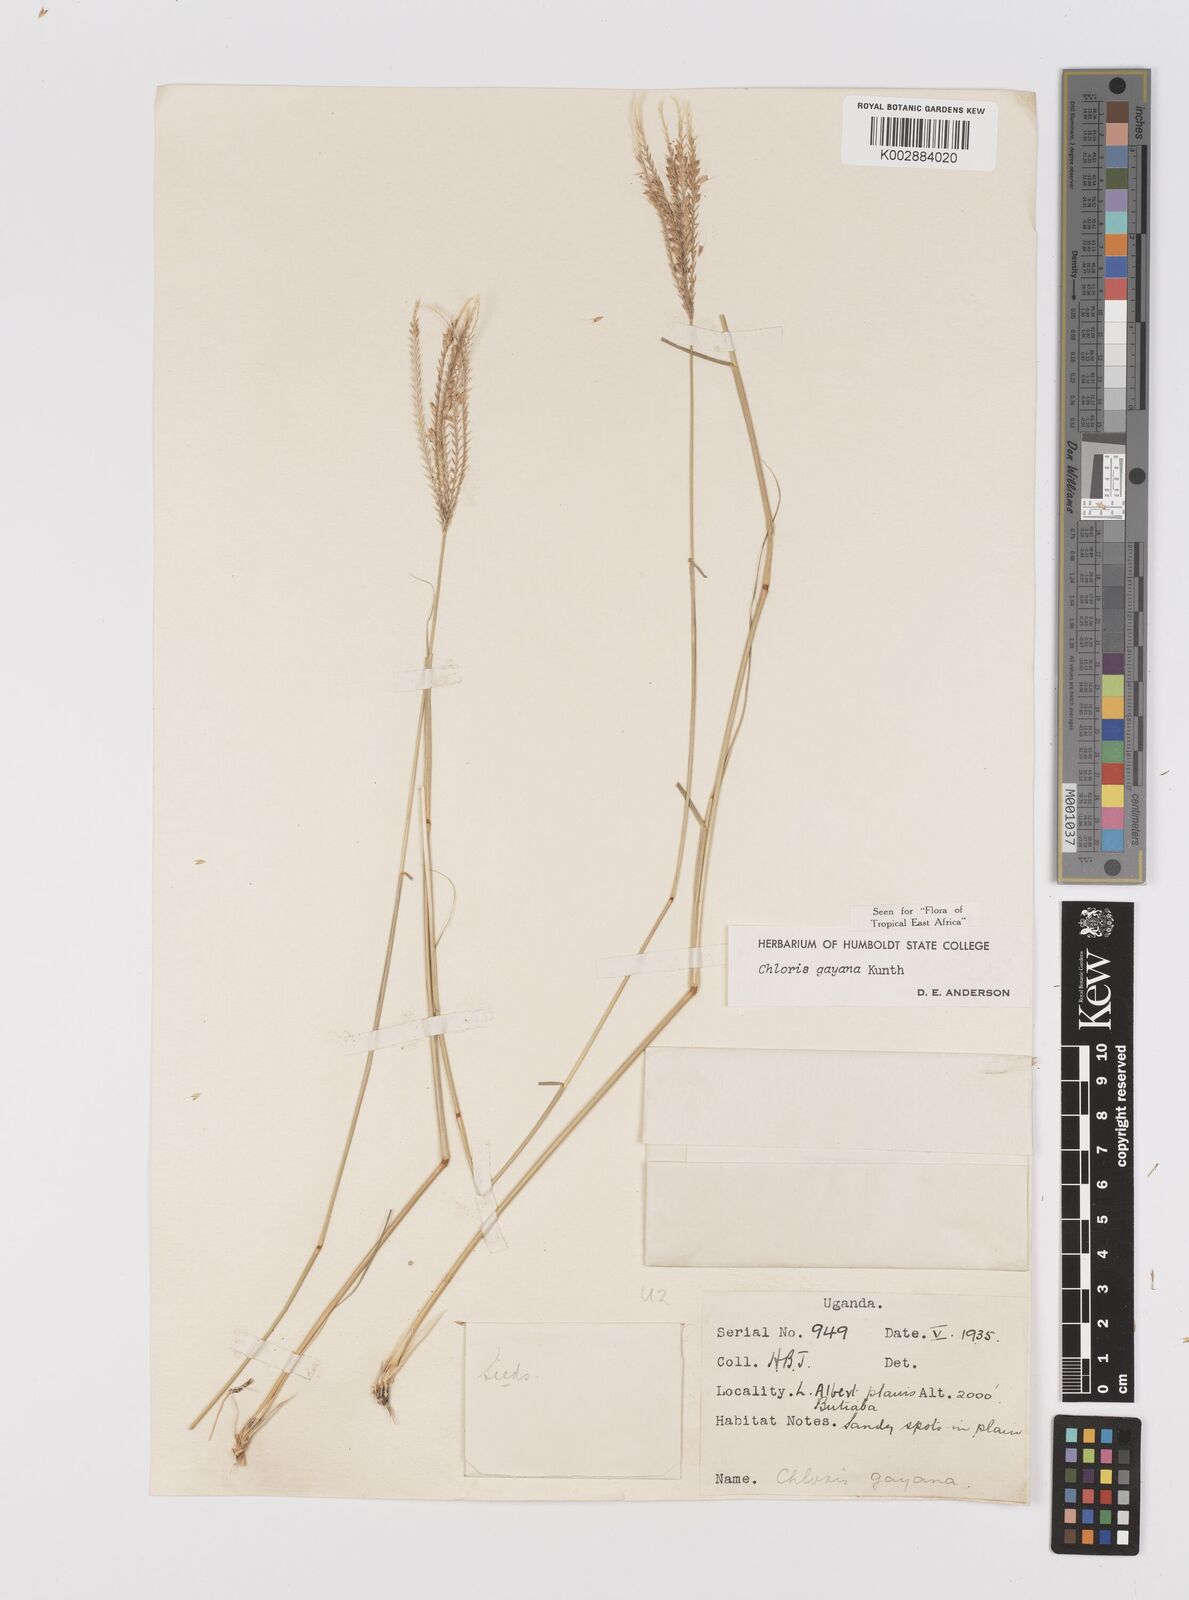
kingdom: Plantae
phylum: Tracheophyta
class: Liliopsida
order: Poales
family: Poaceae
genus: Chloris
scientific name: Chloris gayana
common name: Rhodes grass
